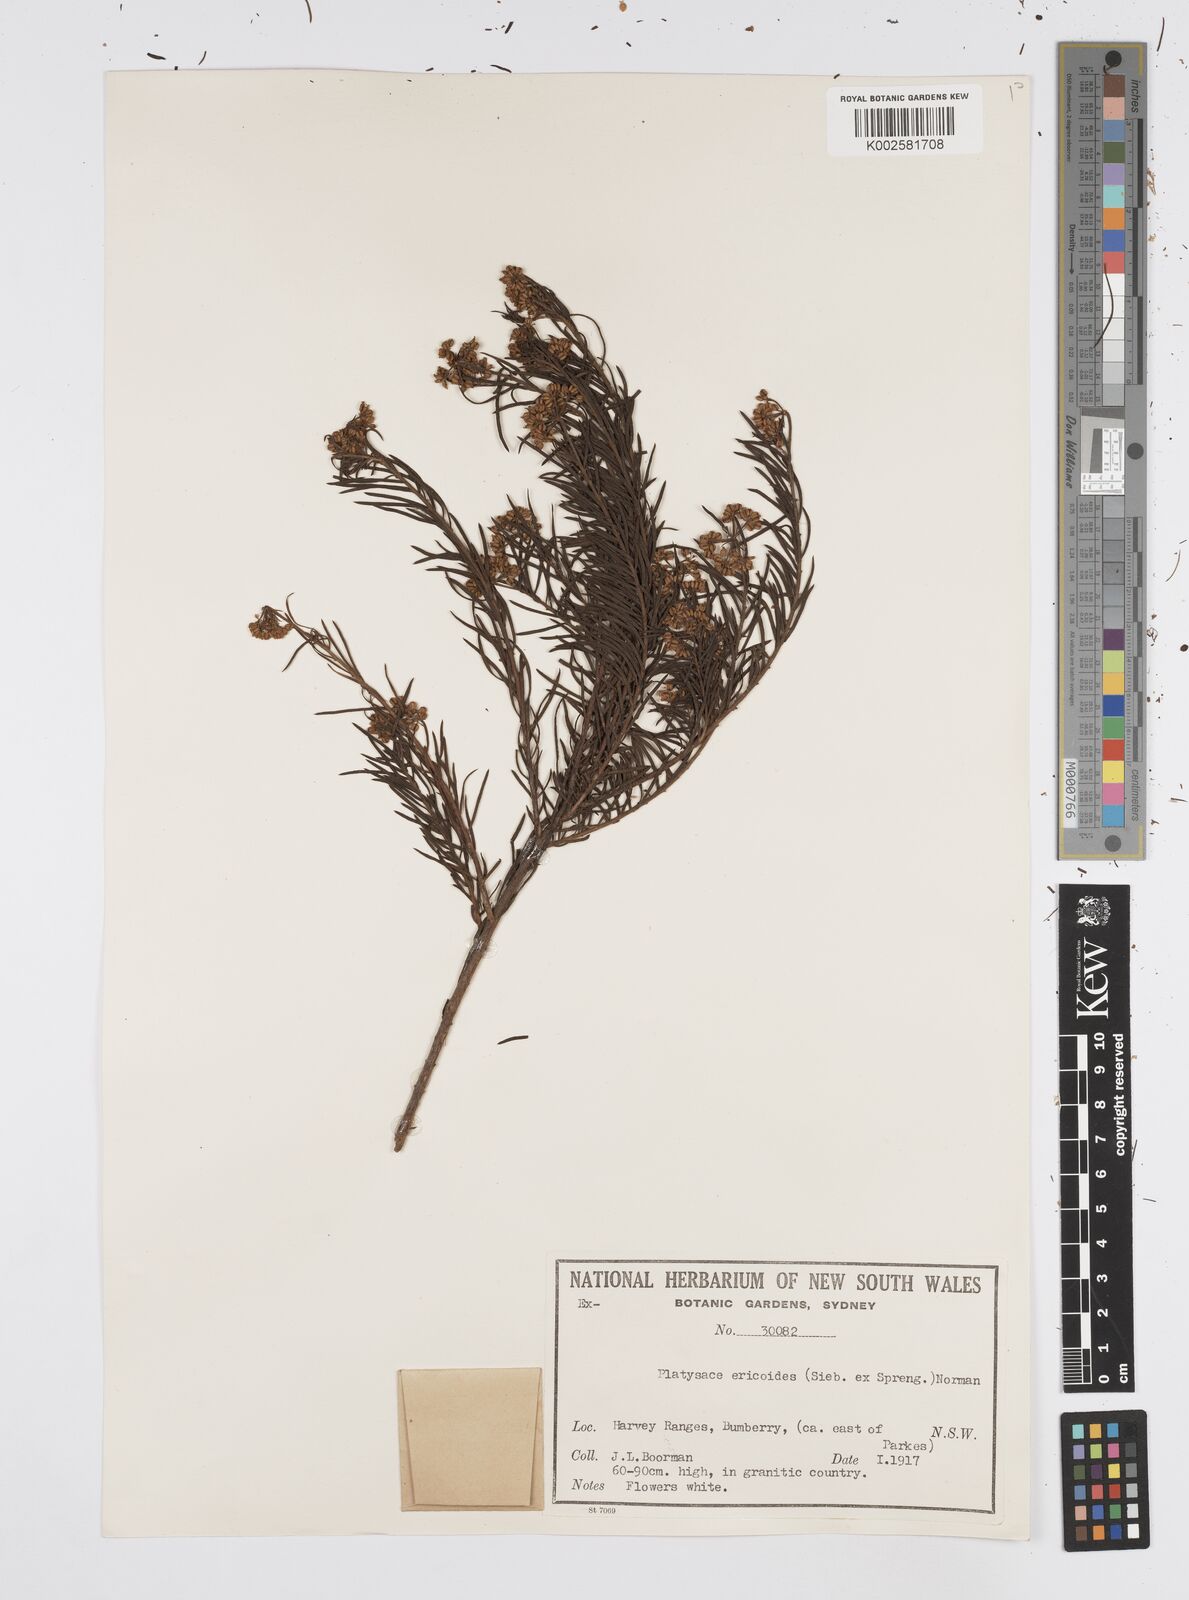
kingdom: Plantae
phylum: Tracheophyta
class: Magnoliopsida
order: Apiales
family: Apiaceae
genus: Platysace
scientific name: Platysace ericoides
